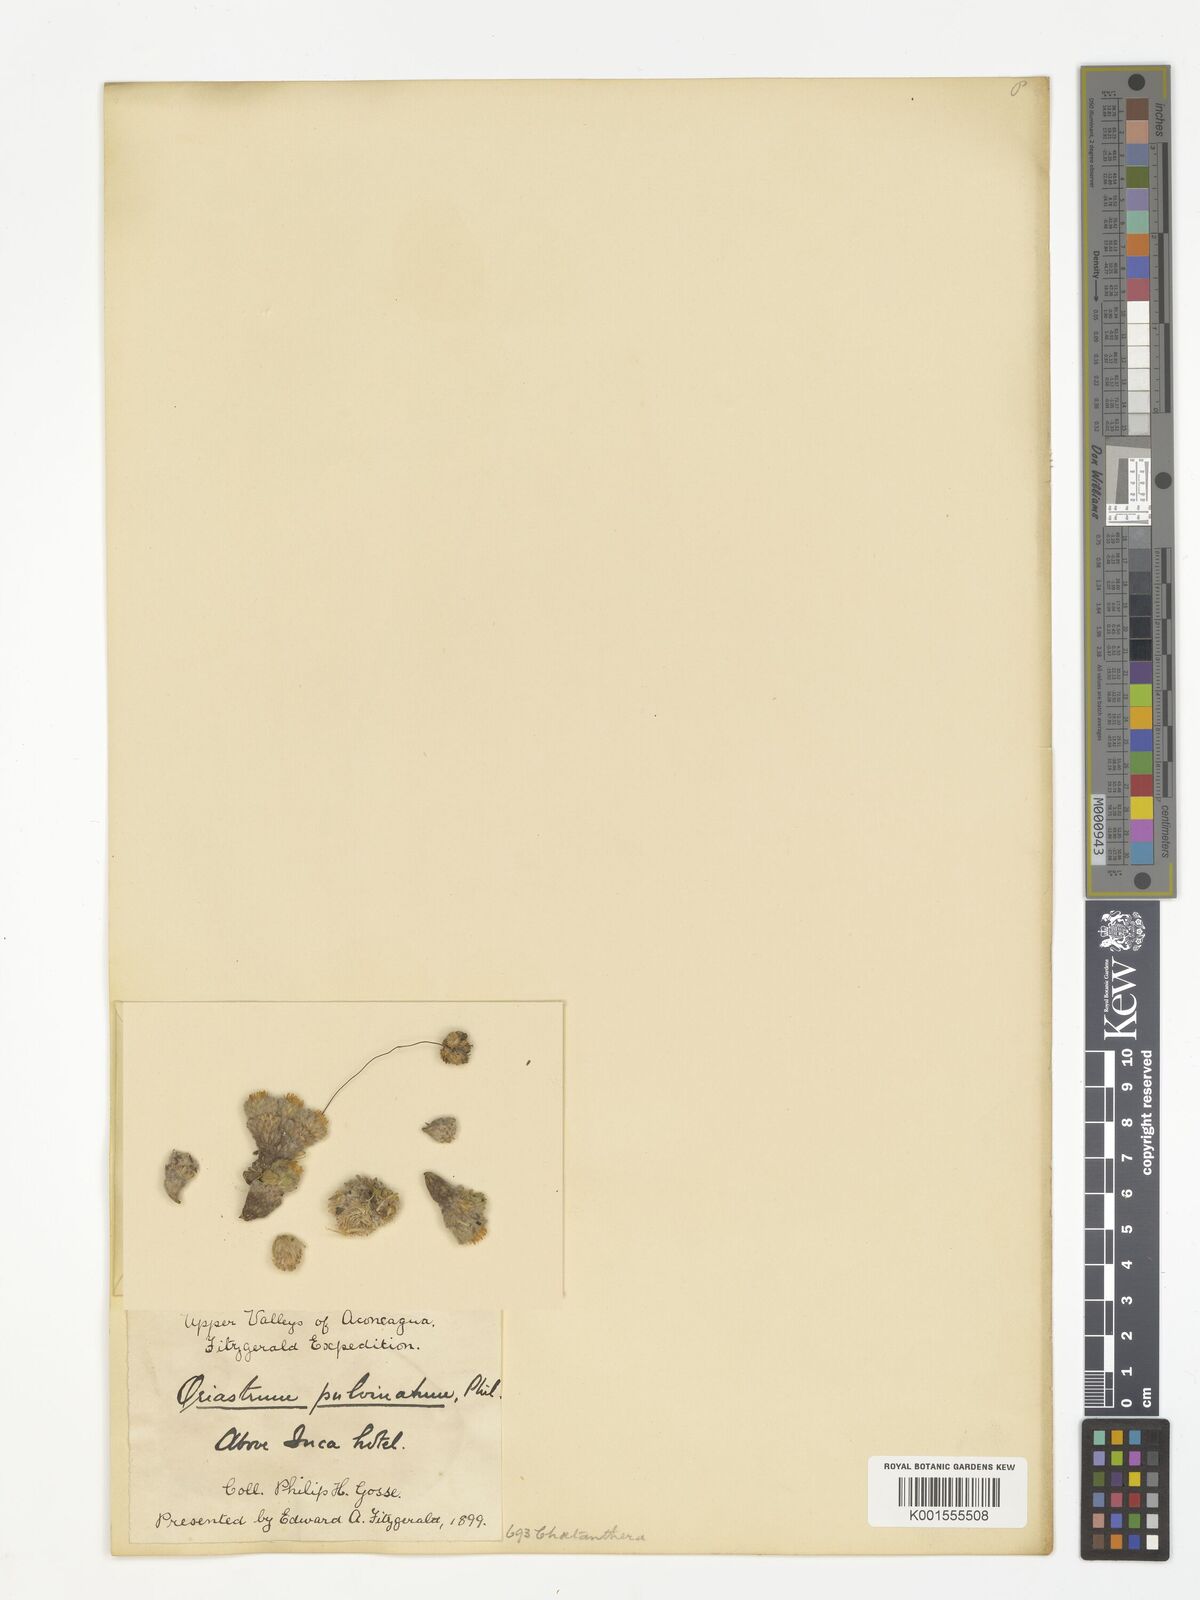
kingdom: Plantae
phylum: Tracheophyta
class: Magnoliopsida
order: Asterales
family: Asteraceae
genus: Oriastrum
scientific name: Oriastrum pulvinatum
